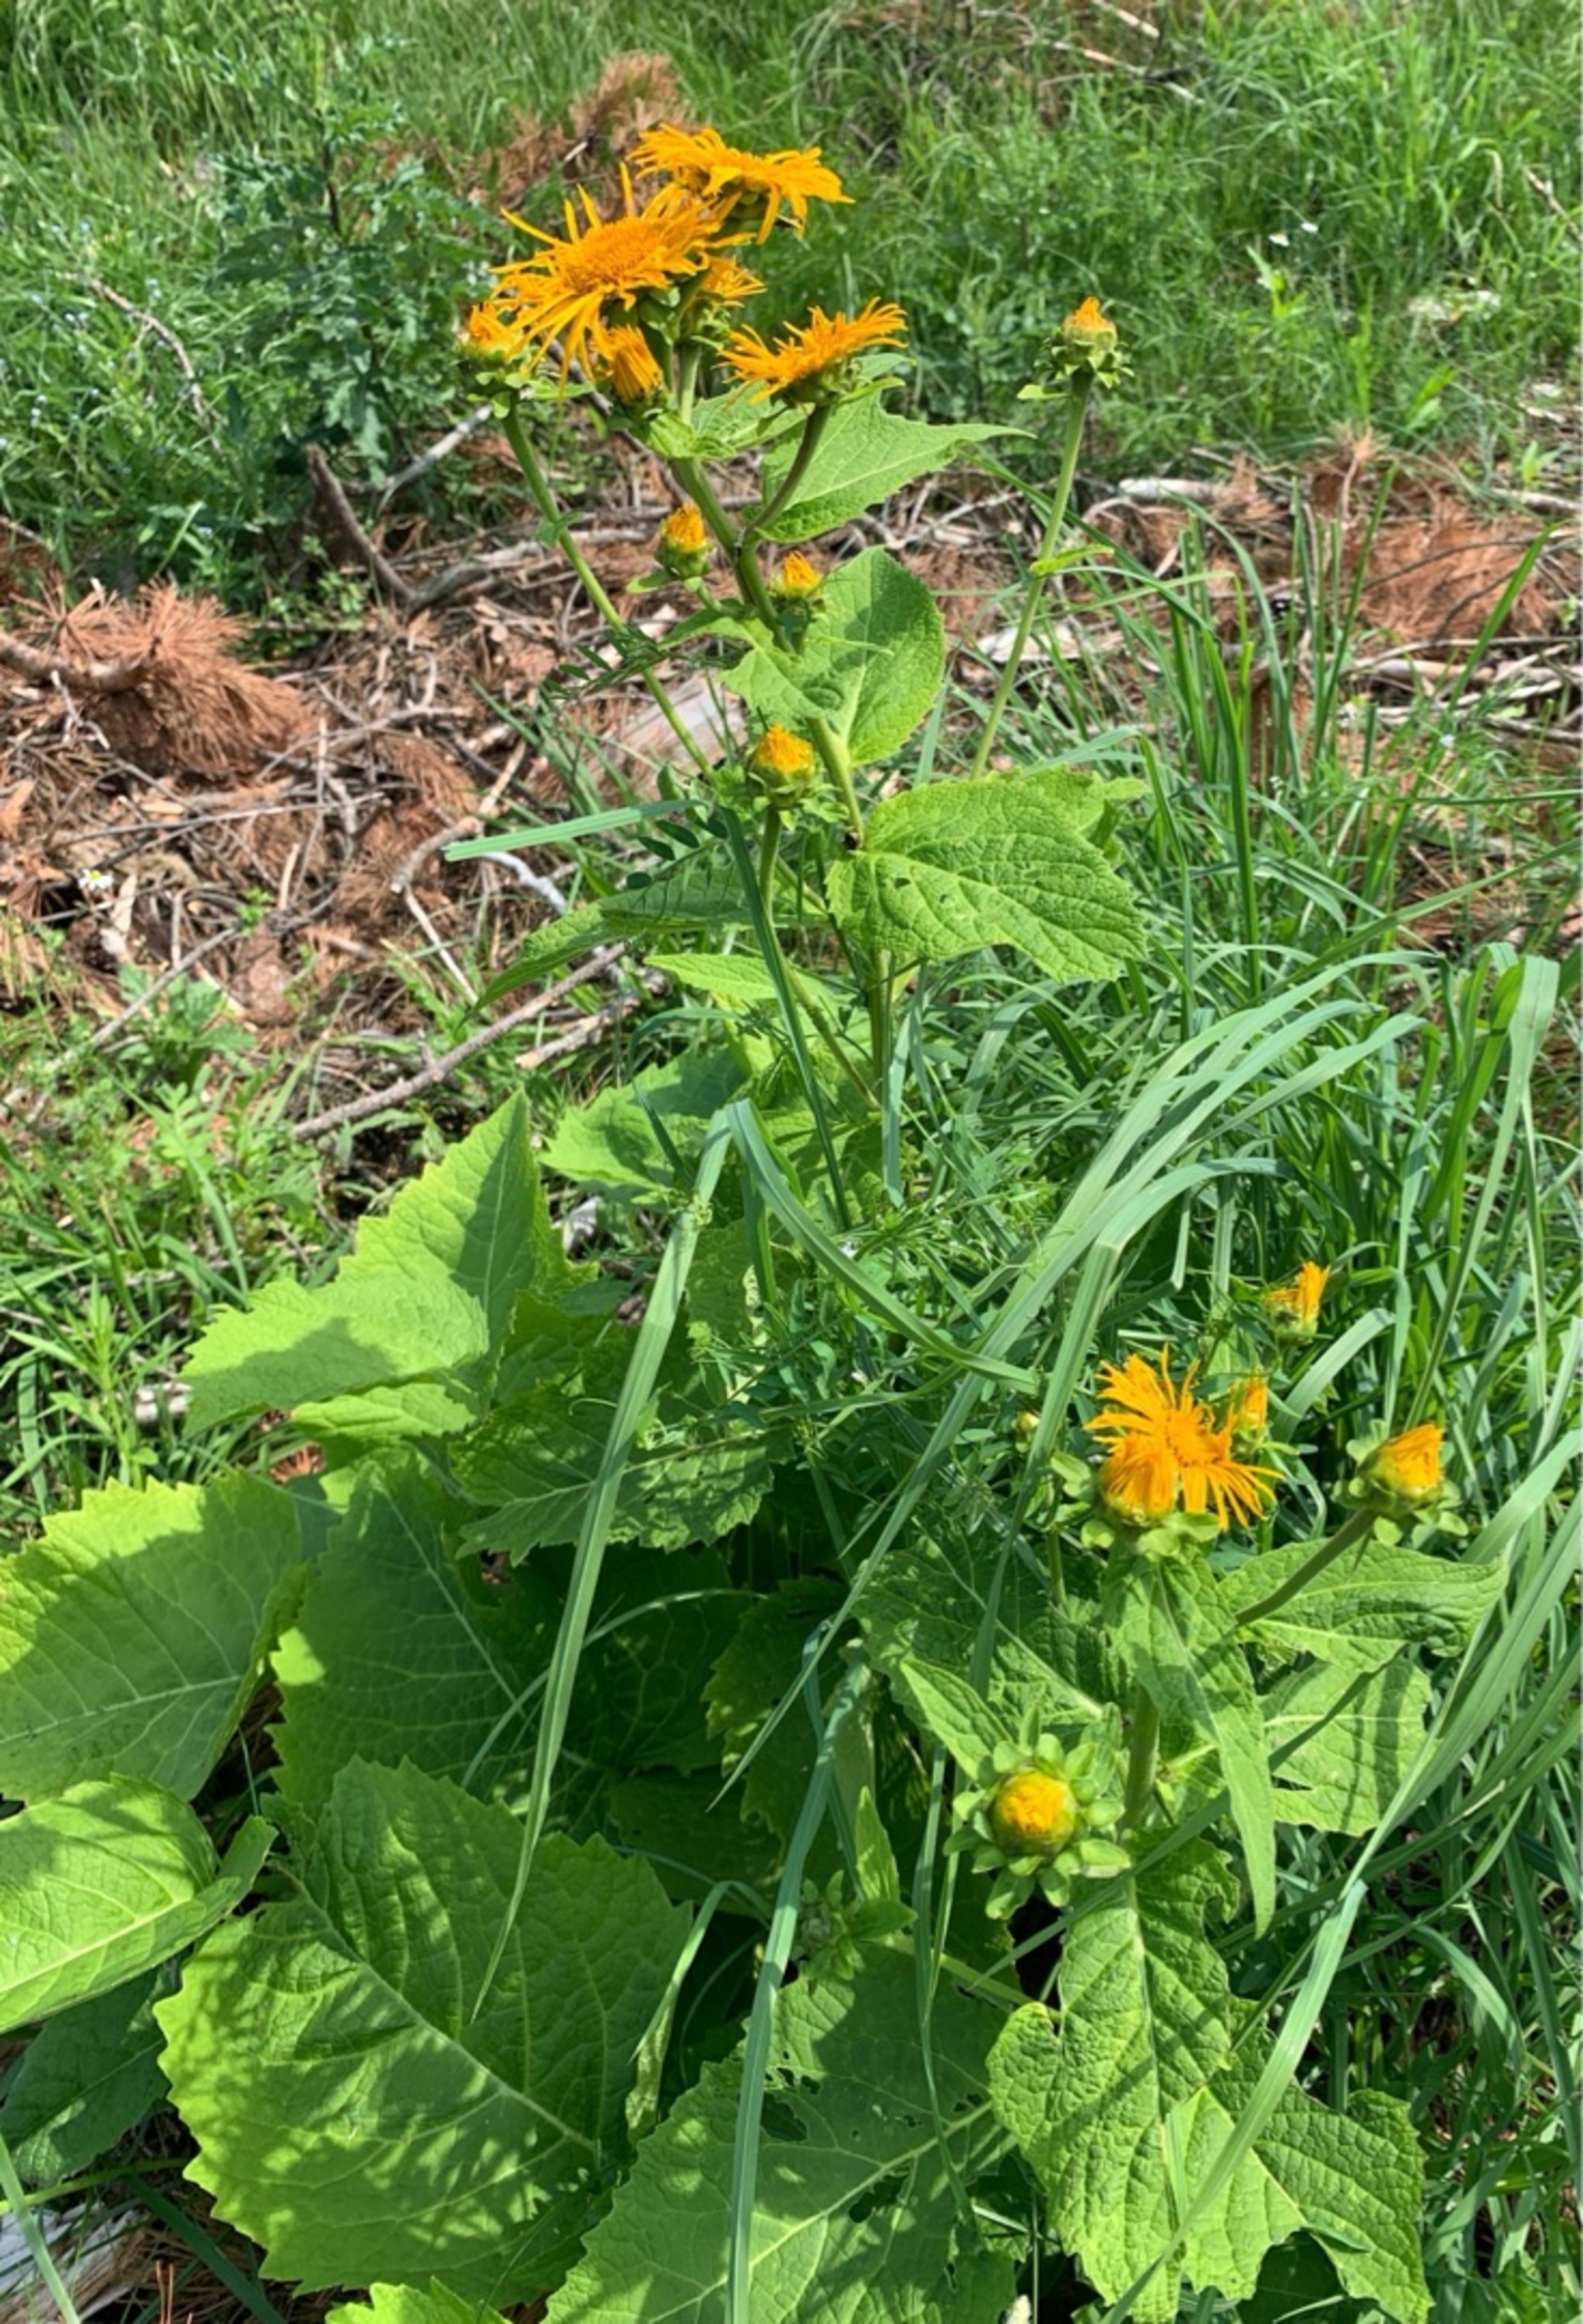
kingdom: Plantae
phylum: Tracheophyta
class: Magnoliopsida
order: Asterales
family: Asteraceae
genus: Telekia
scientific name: Telekia speciosa
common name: Tusindstråle
